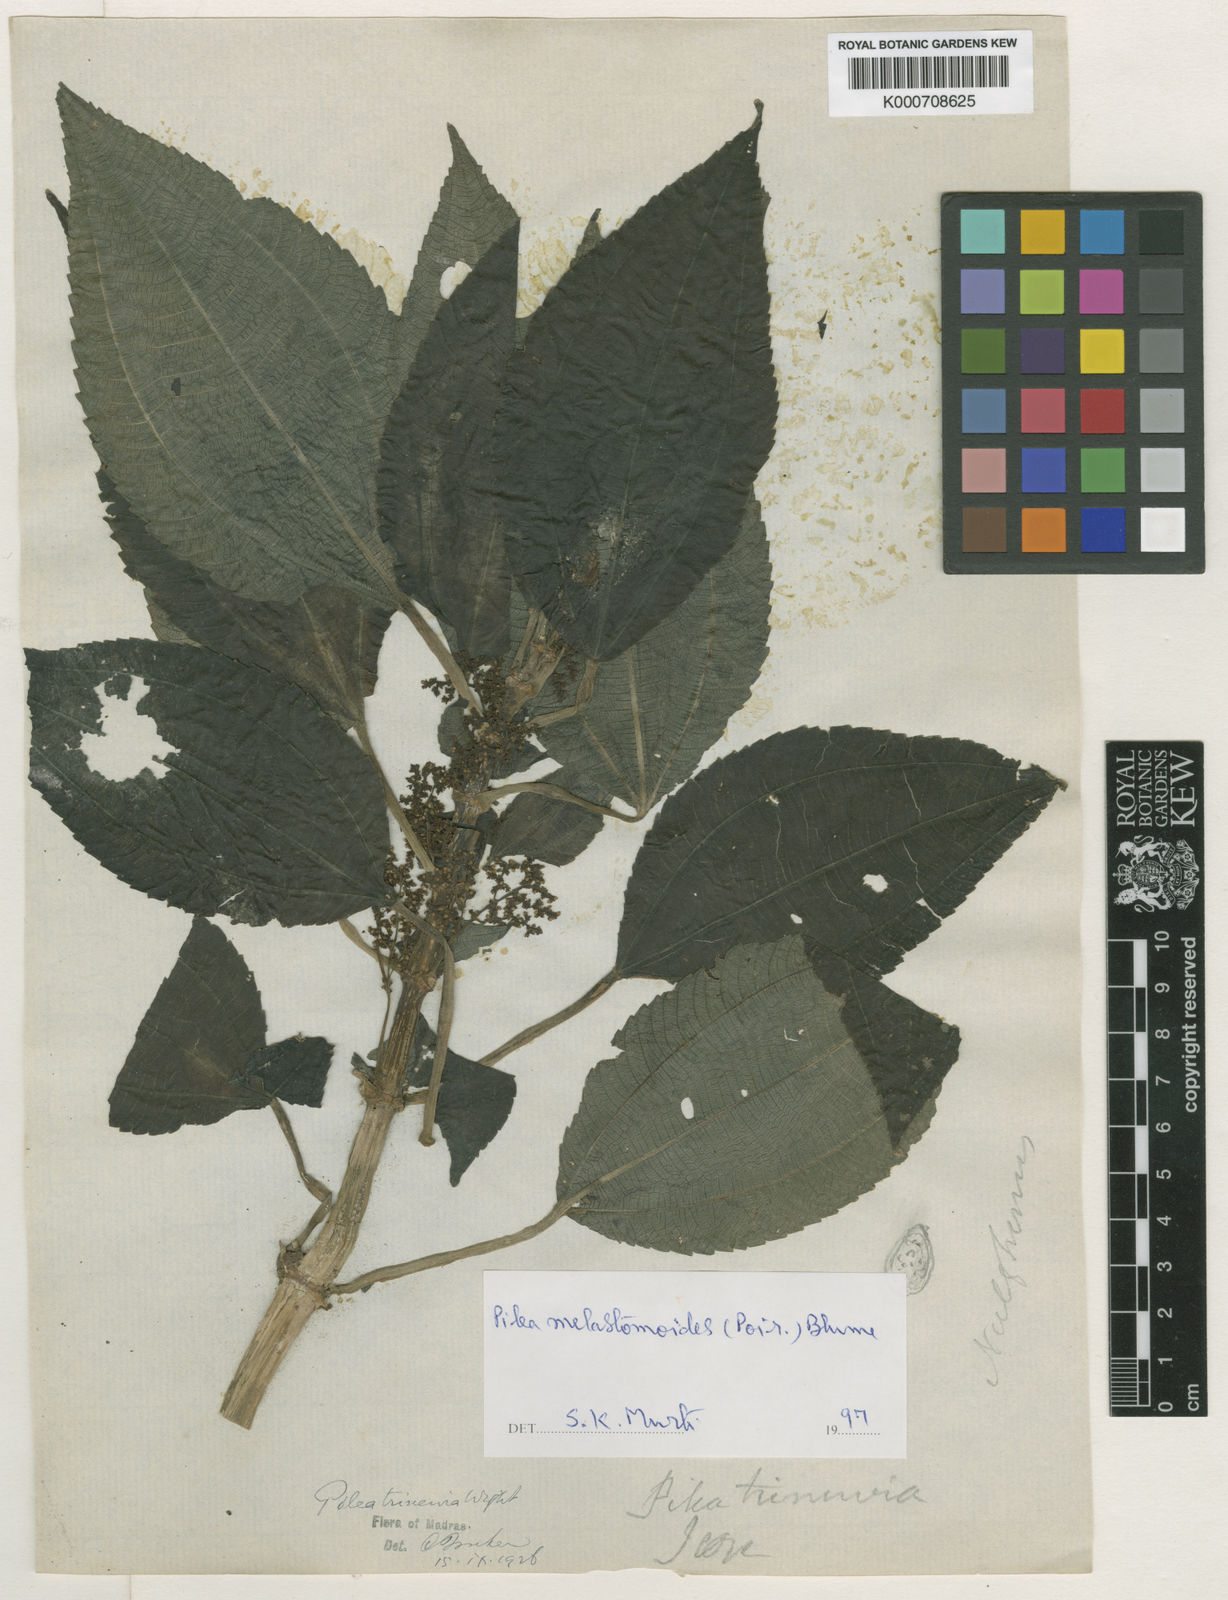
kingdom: Plantae
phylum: Tracheophyta
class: Magnoliopsida
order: Rosales
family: Urticaceae
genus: Pilea
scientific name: Pilea
